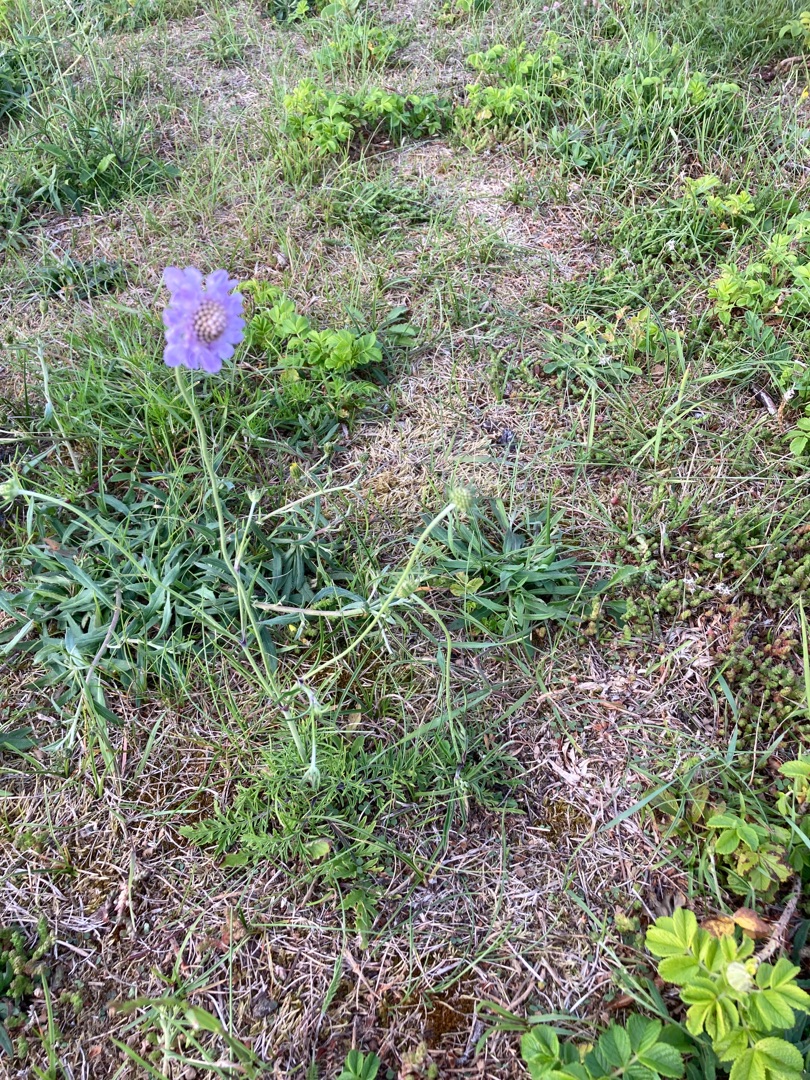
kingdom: Plantae
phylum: Tracheophyta
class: Magnoliopsida
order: Dipsacales
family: Caprifoliaceae
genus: Scabiosa
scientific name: Scabiosa columbaria
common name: Due-skabiose
